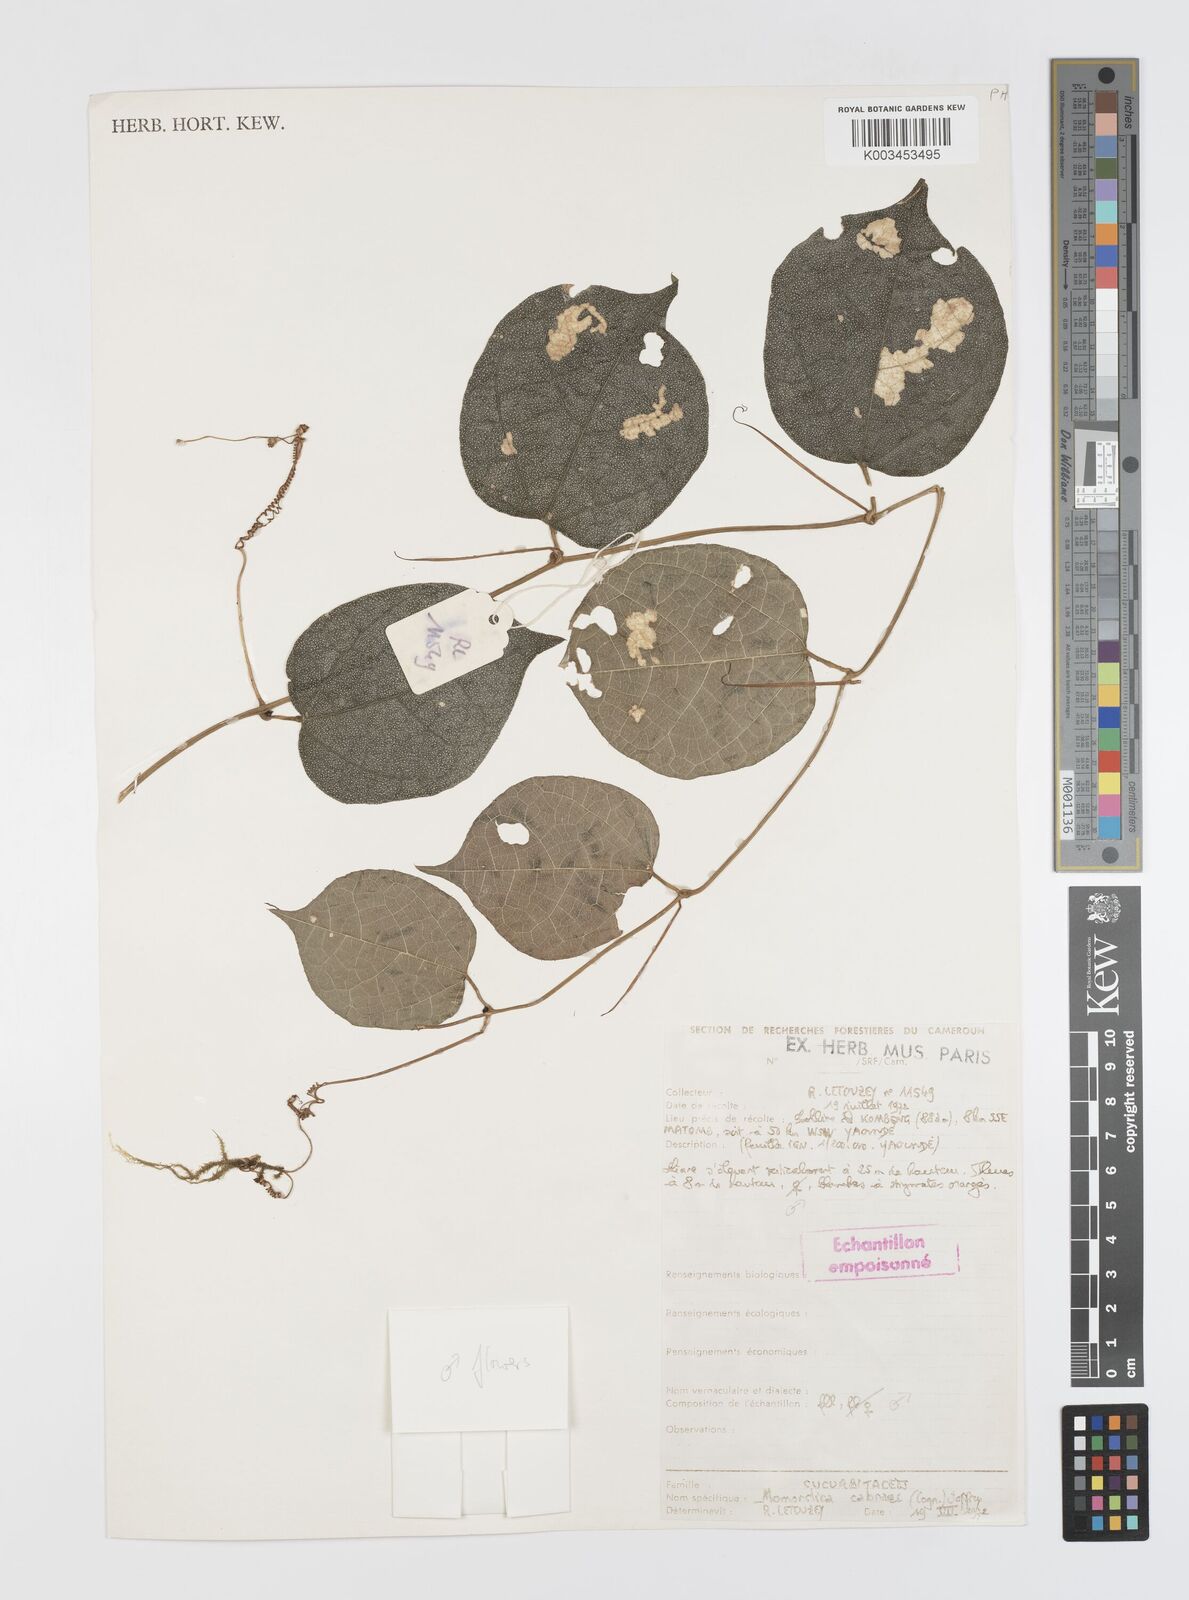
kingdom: Plantae
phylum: Tracheophyta
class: Magnoliopsida
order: Cucurbitales
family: Cucurbitaceae
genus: Momordica
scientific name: Momordica cabrae
